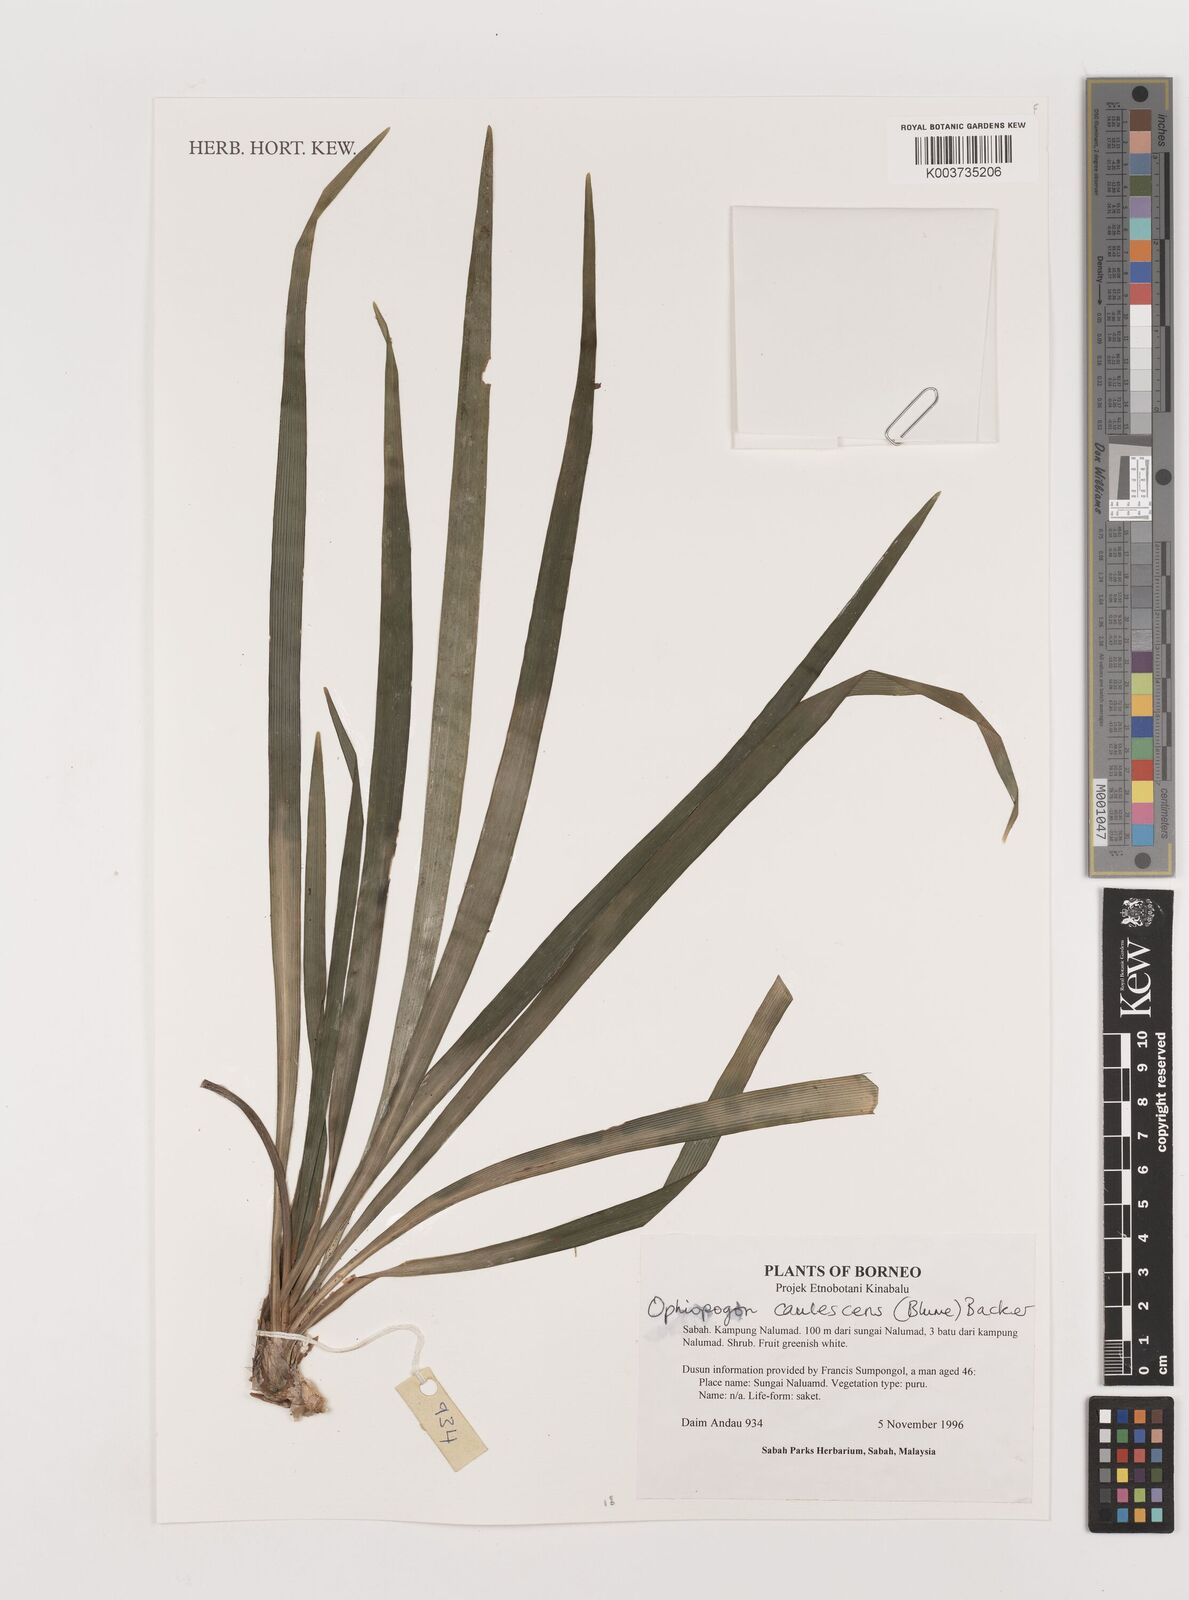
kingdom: Plantae
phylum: Tracheophyta
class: Liliopsida
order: Asparagales
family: Asparagaceae
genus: Ophiopogon
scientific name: Ophiopogon caulescens
